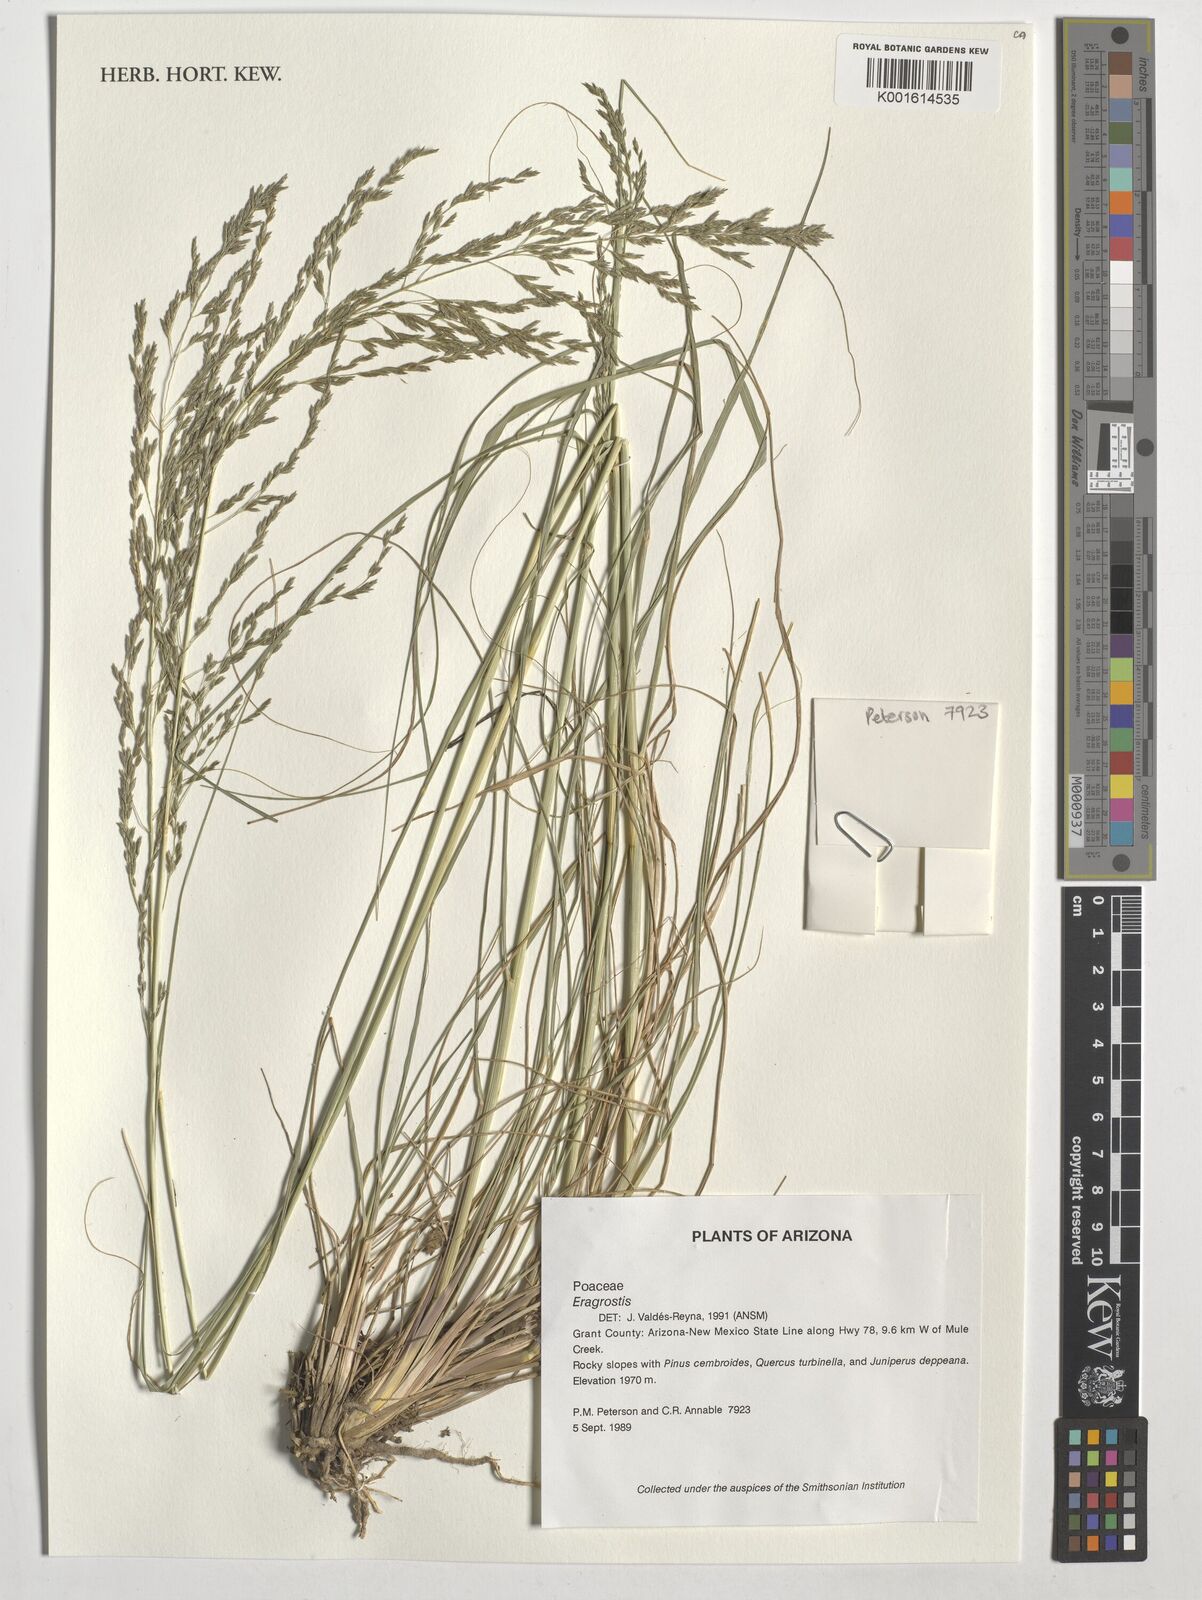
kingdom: Plantae
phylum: Tracheophyta
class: Liliopsida
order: Poales
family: Poaceae
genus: Eragrostis
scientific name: Eragrostis
